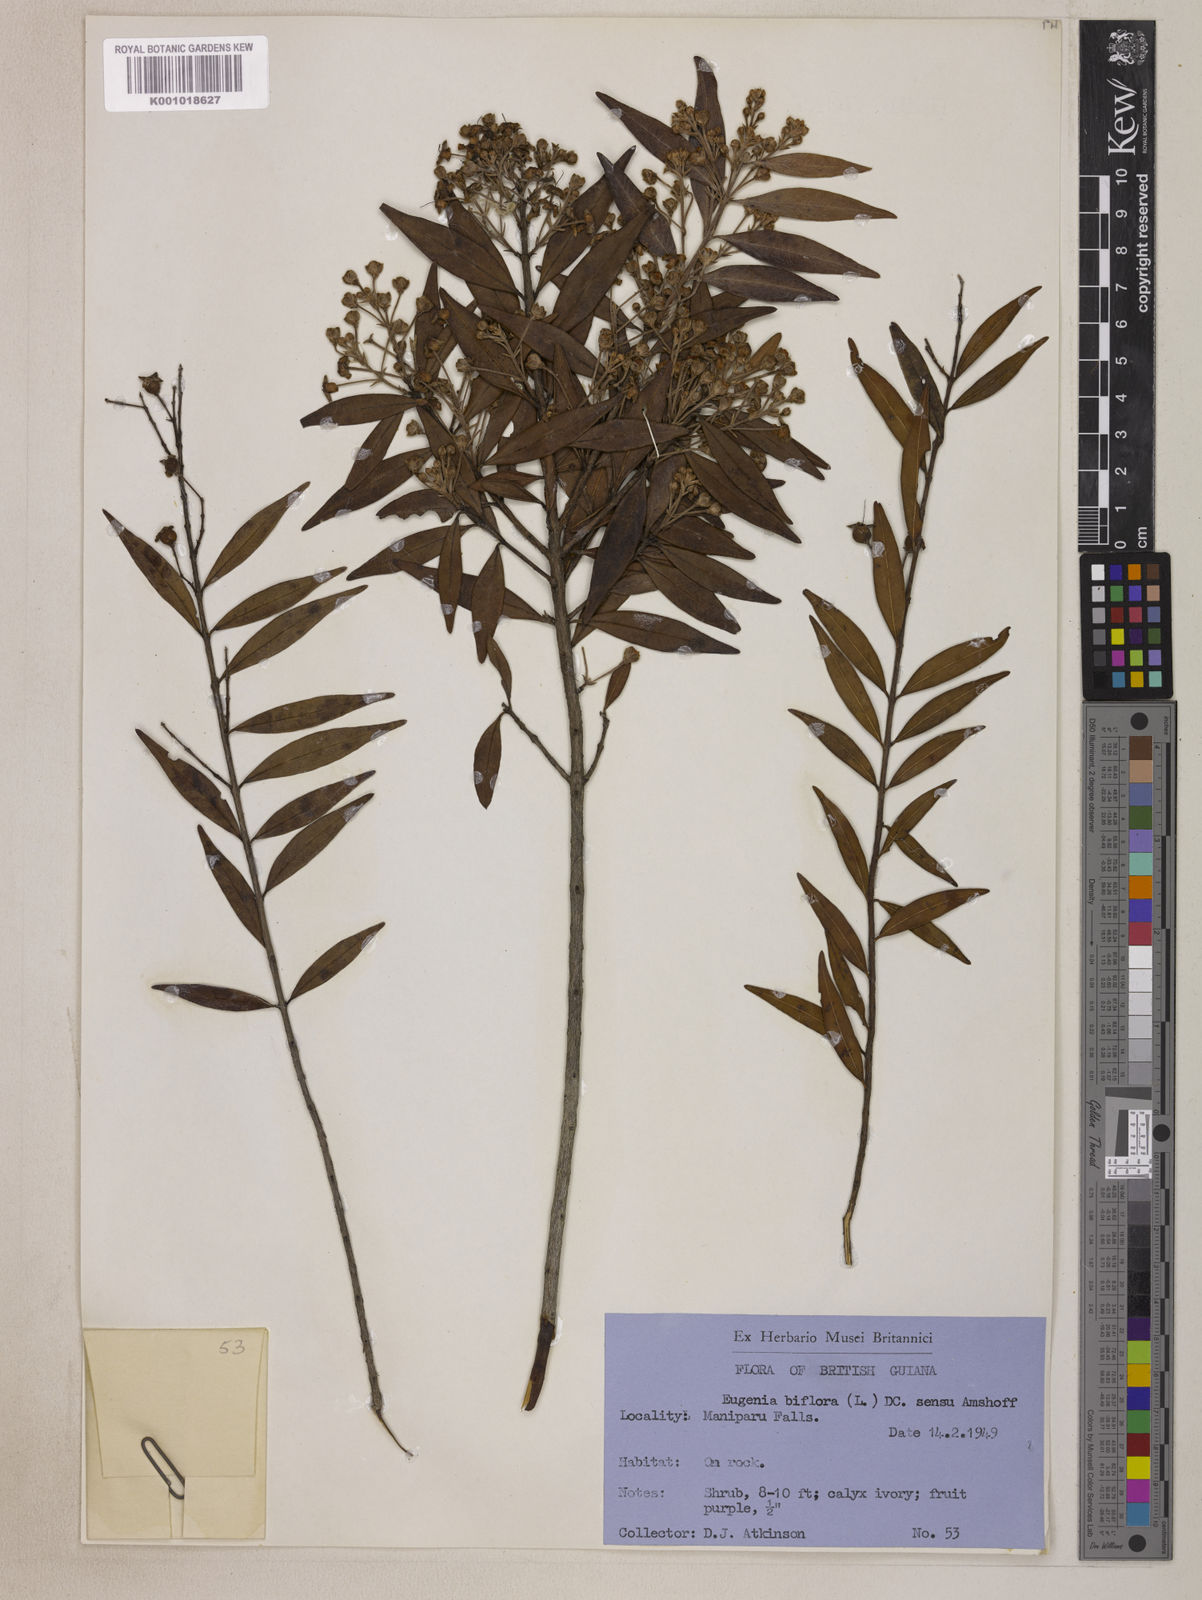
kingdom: Plantae
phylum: Tracheophyta
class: Magnoliopsida
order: Myrtales
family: Myrtaceae
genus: Eugenia
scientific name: Eugenia biflora
